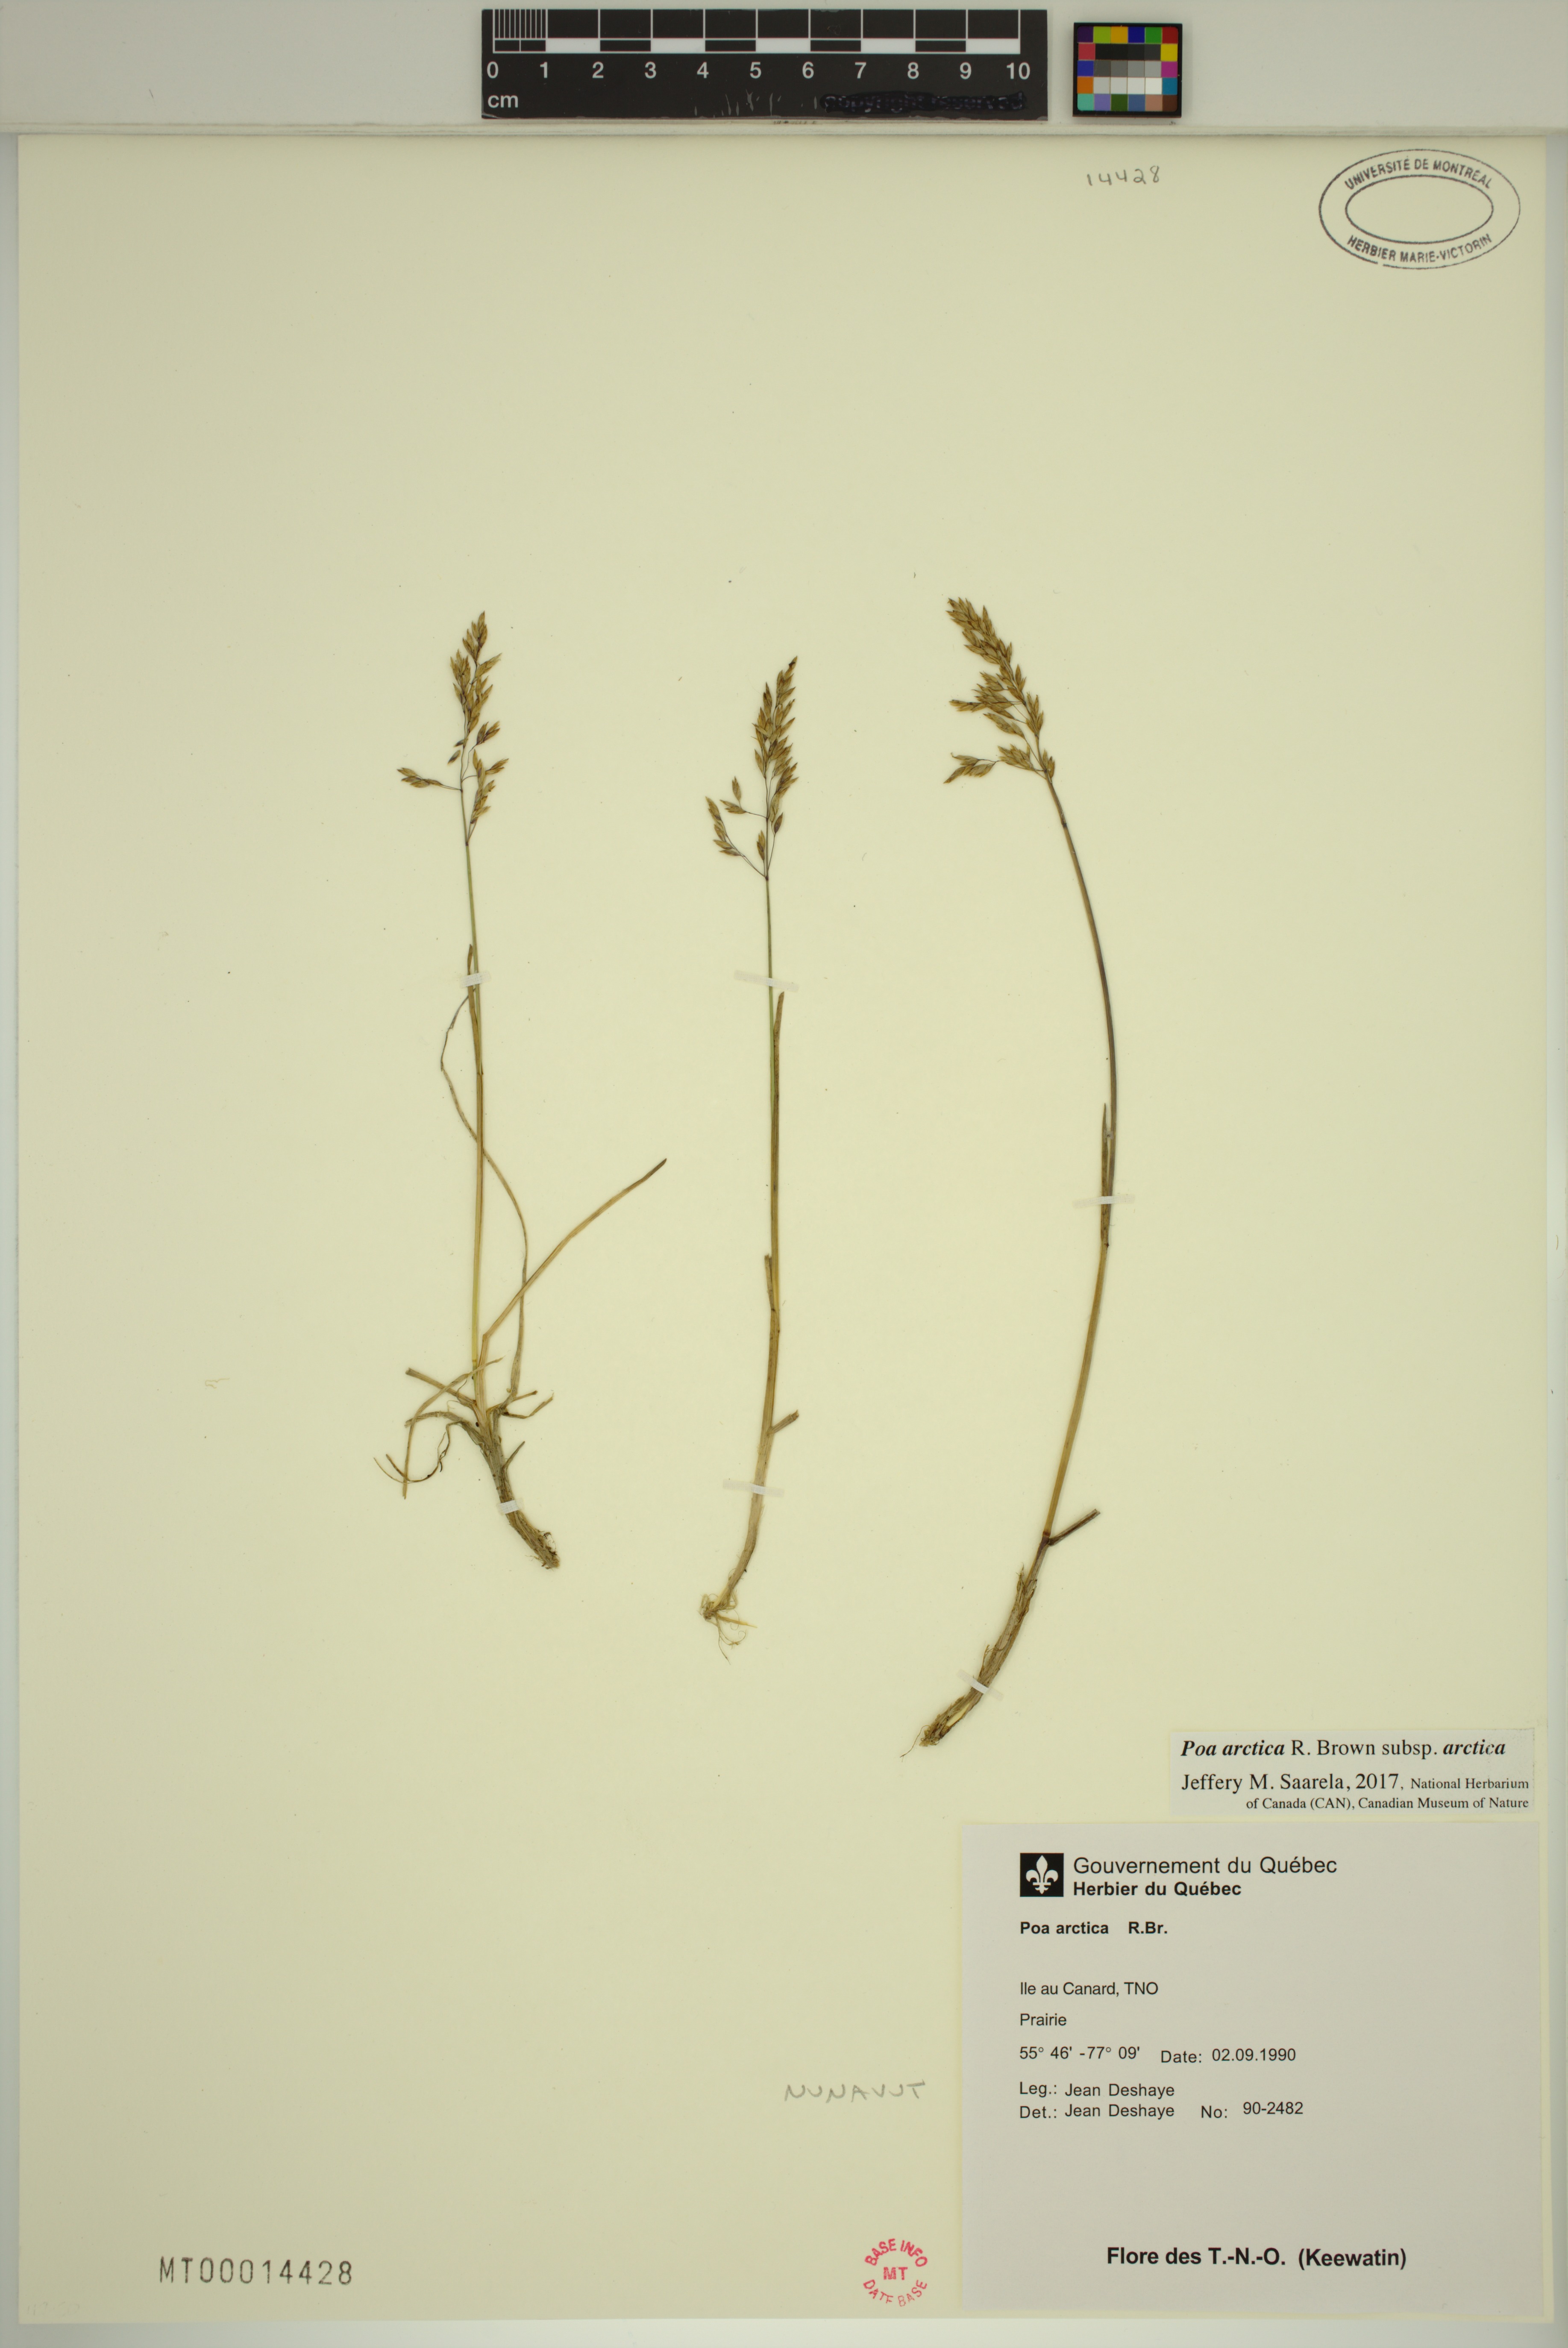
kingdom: Plantae
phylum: Tracheophyta
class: Liliopsida
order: Poales
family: Poaceae
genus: Poa
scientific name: Poa arctica
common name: Arctic bluegrass
